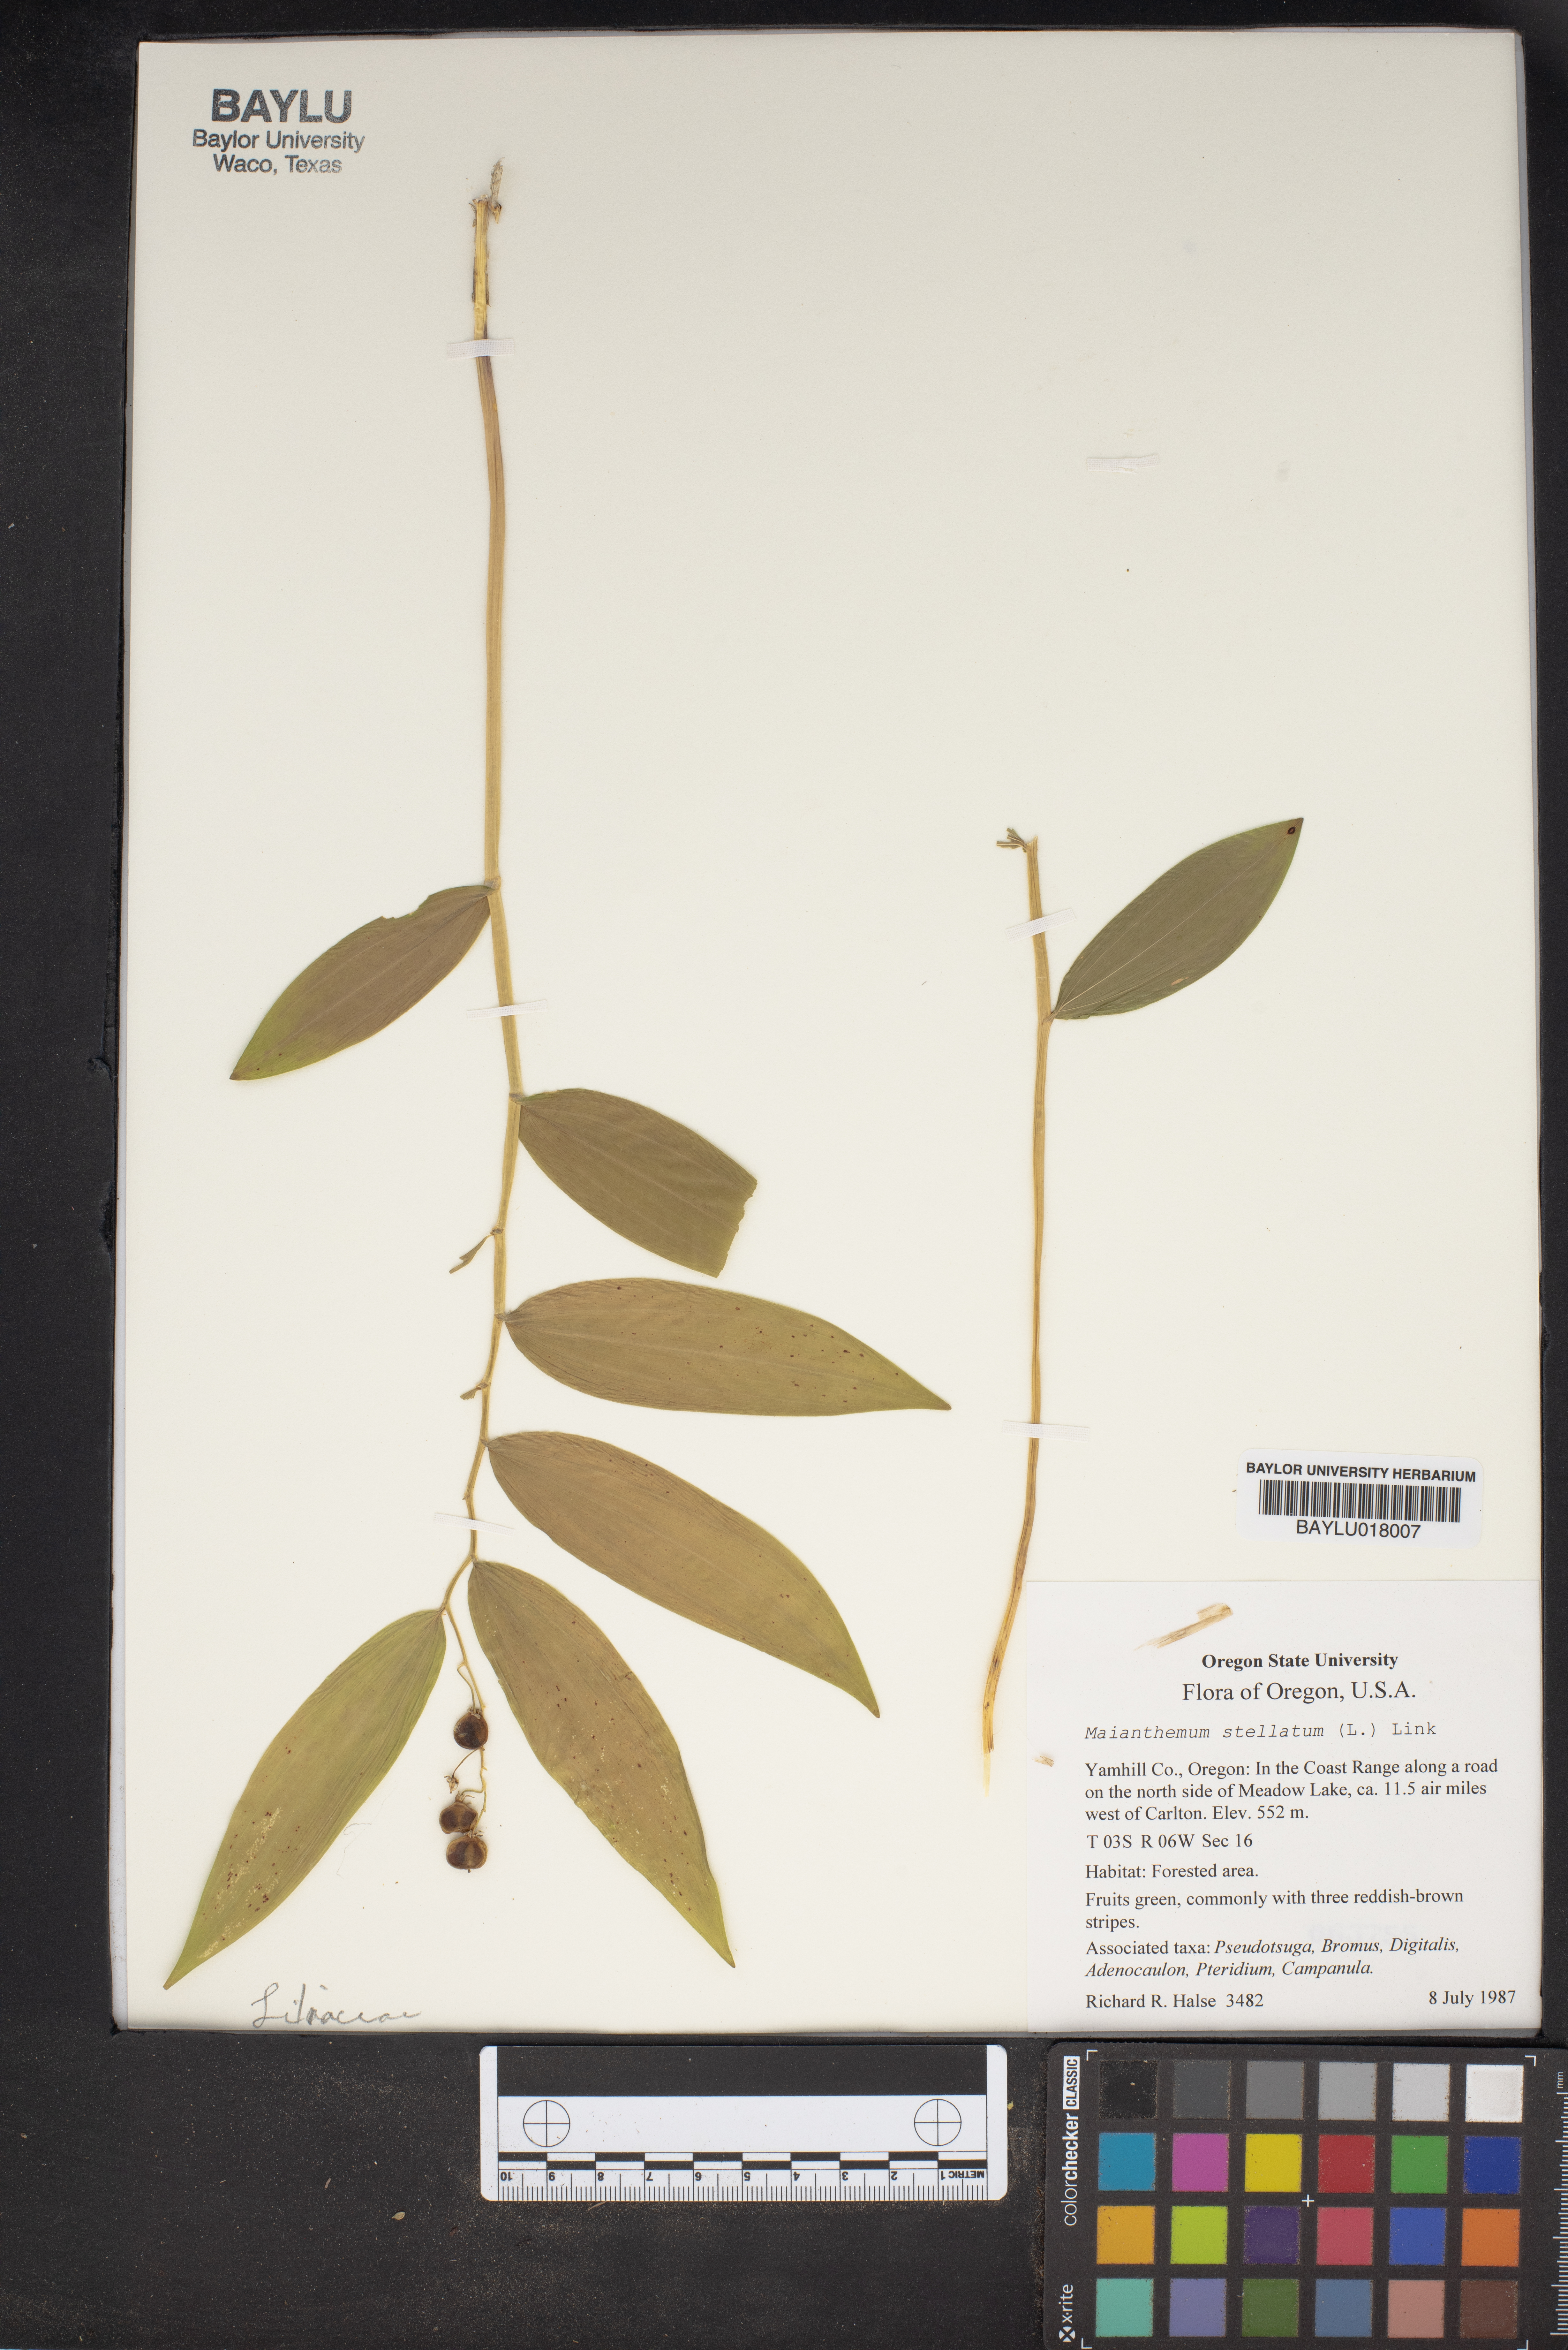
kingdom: Plantae
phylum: Tracheophyta
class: Liliopsida
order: Asparagales
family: Asparagaceae
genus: Maianthemum
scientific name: Maianthemum stellatum
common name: Little false solomon's seal
